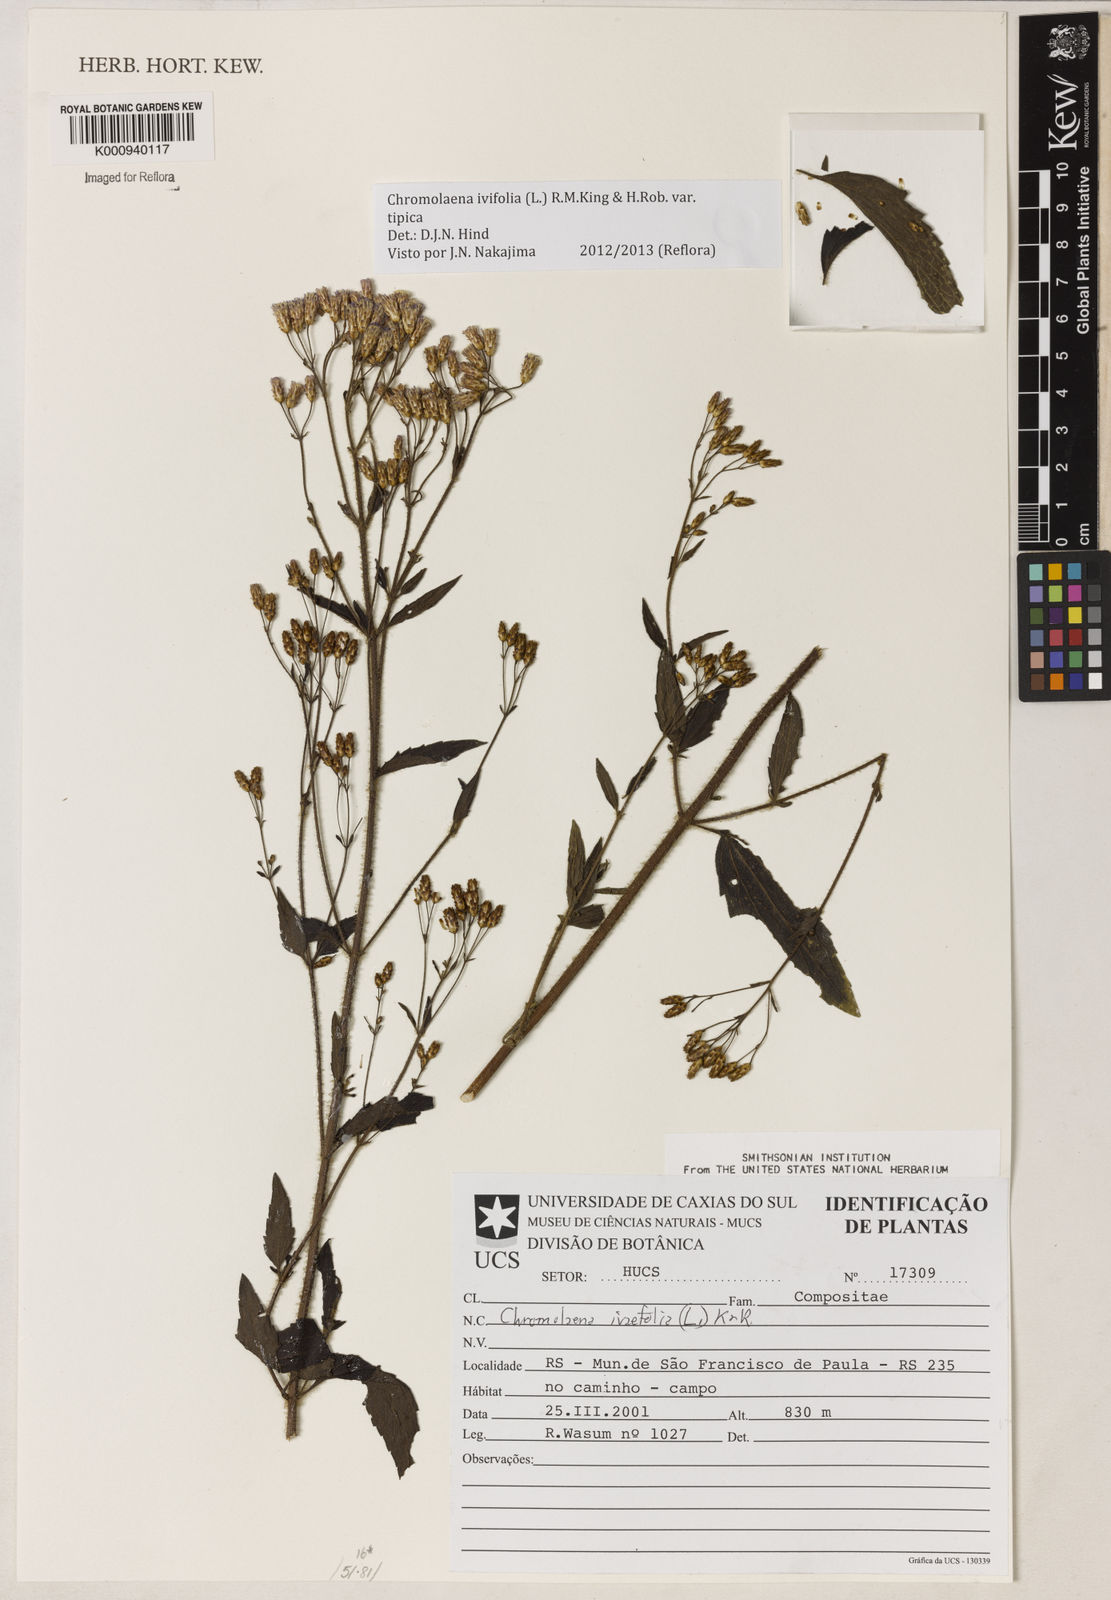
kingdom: Plantae
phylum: Tracheophyta
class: Magnoliopsida
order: Asterales
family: Asteraceae
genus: Chromolaena
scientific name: Chromolaena ivifolia
